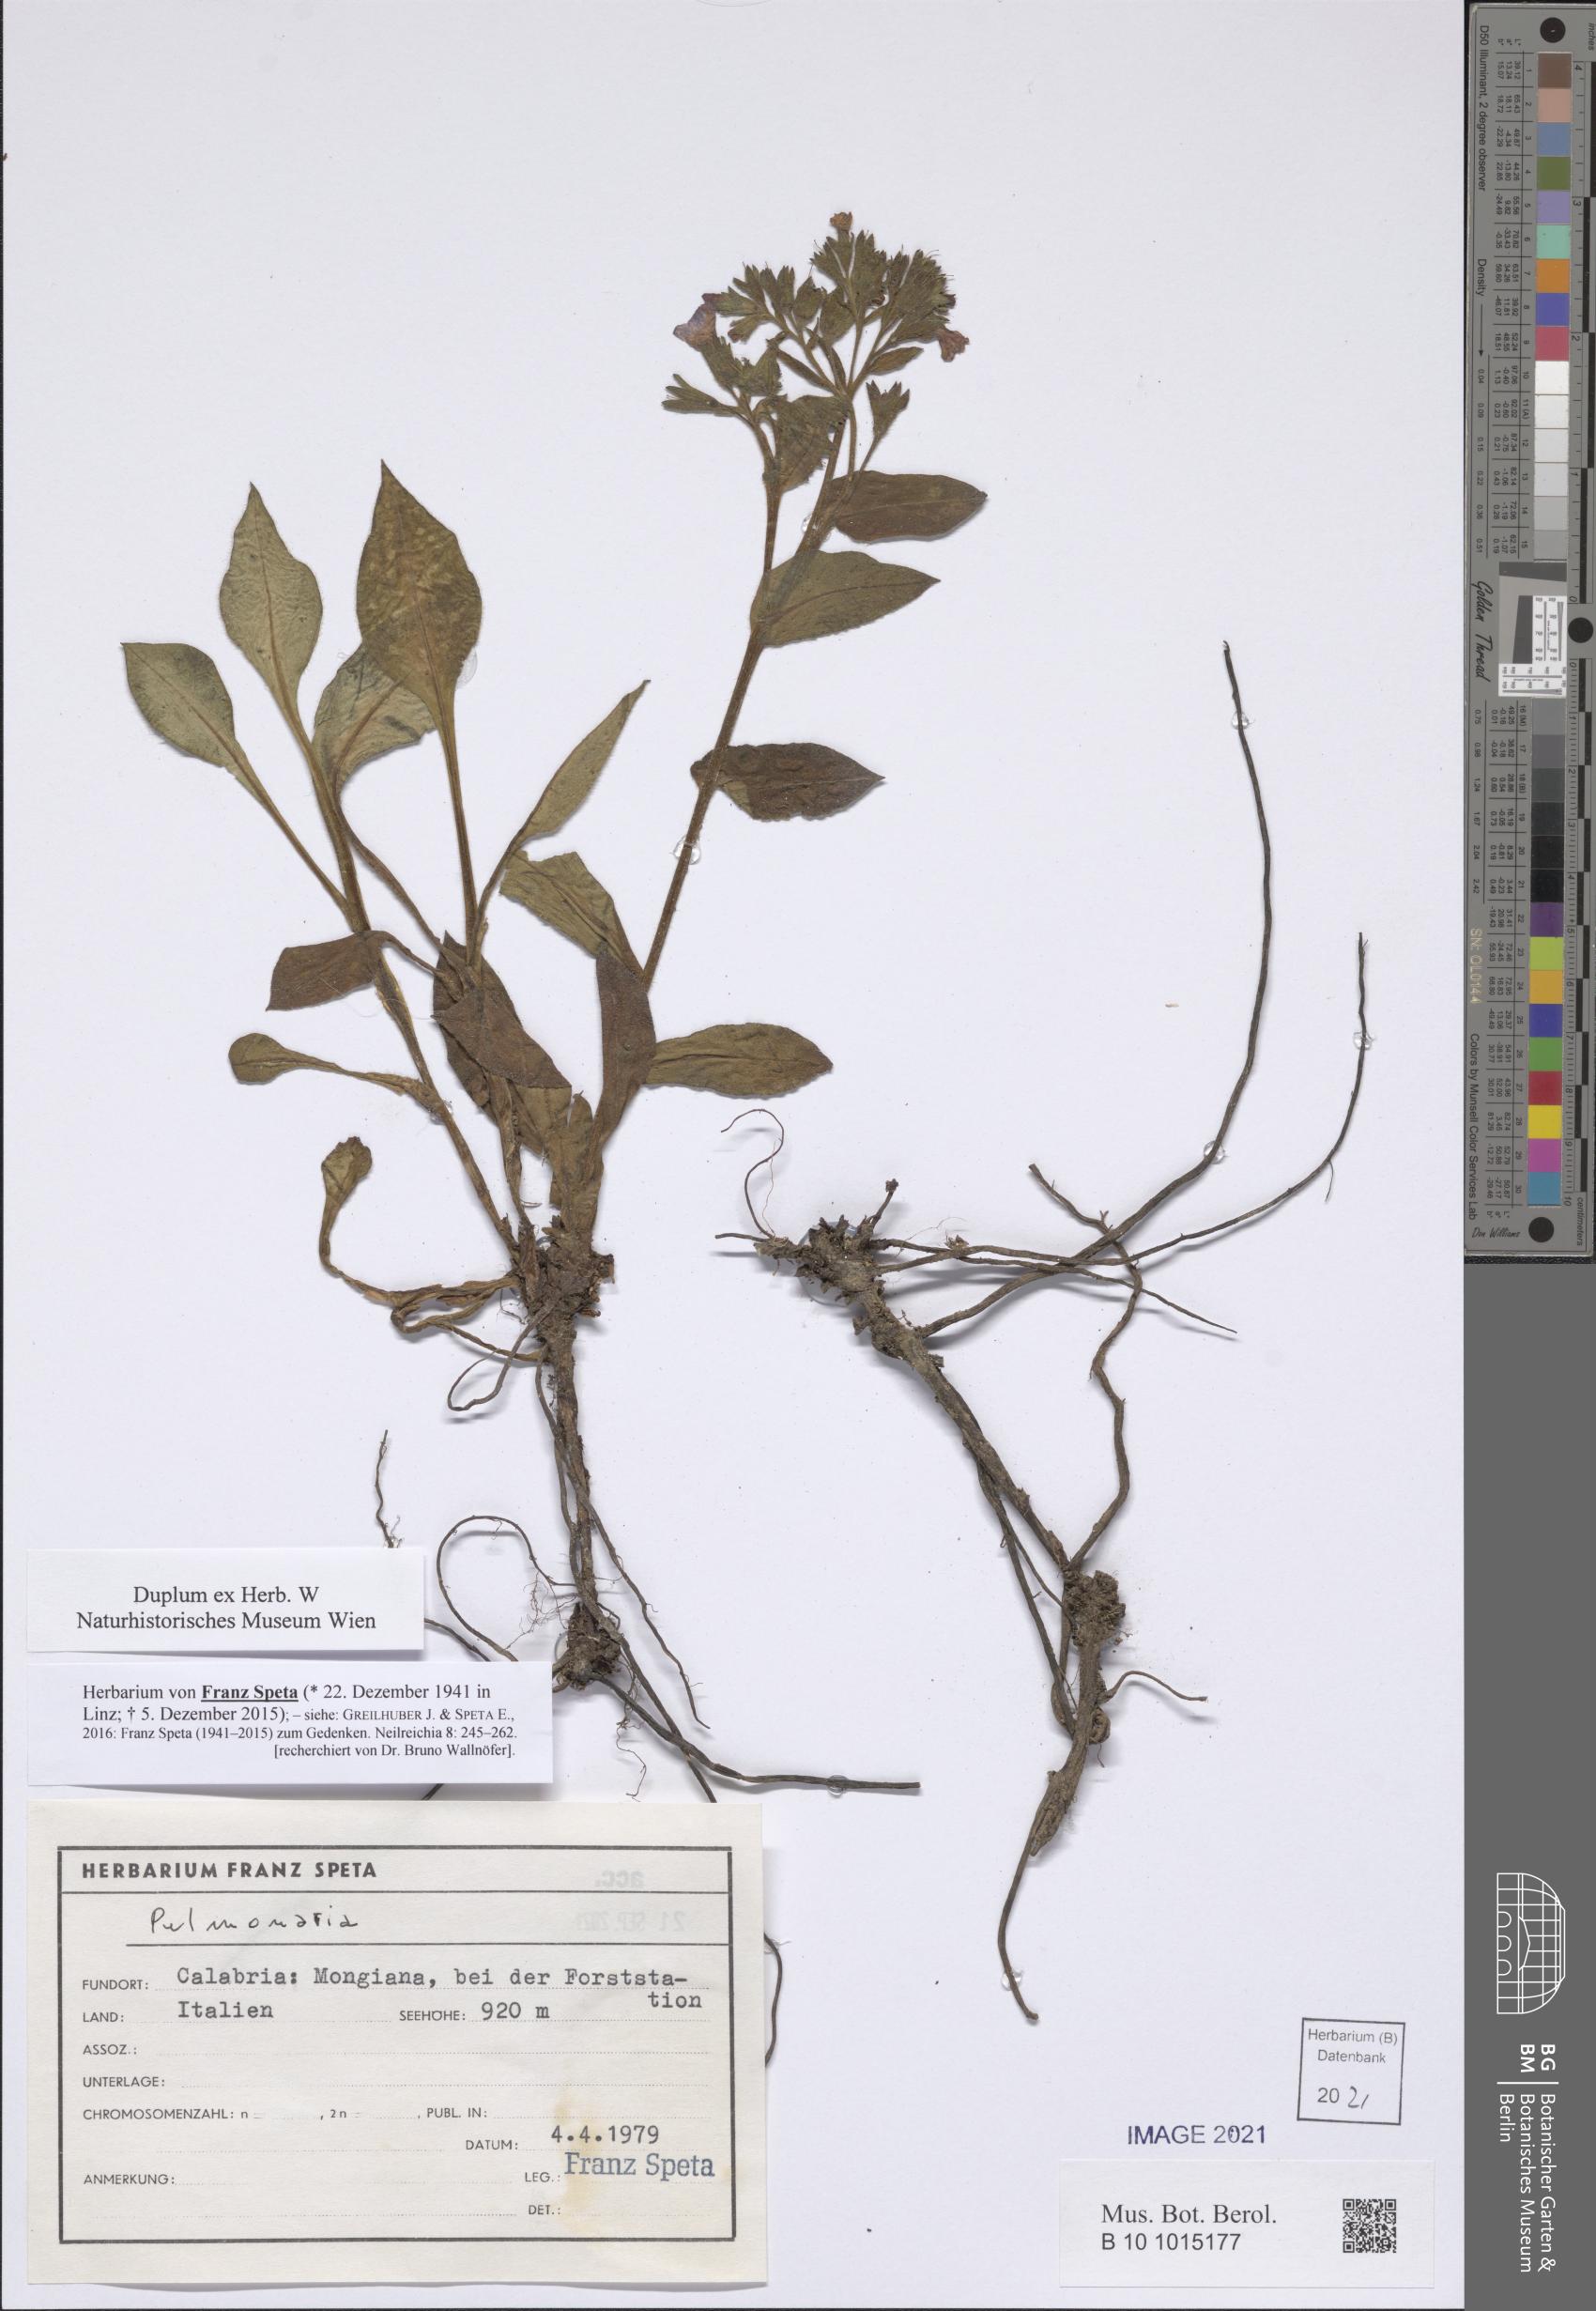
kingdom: Plantae
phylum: Tracheophyta
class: Magnoliopsida
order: Boraginales
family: Boraginaceae
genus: Pulmonaria
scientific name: Pulmonaria
